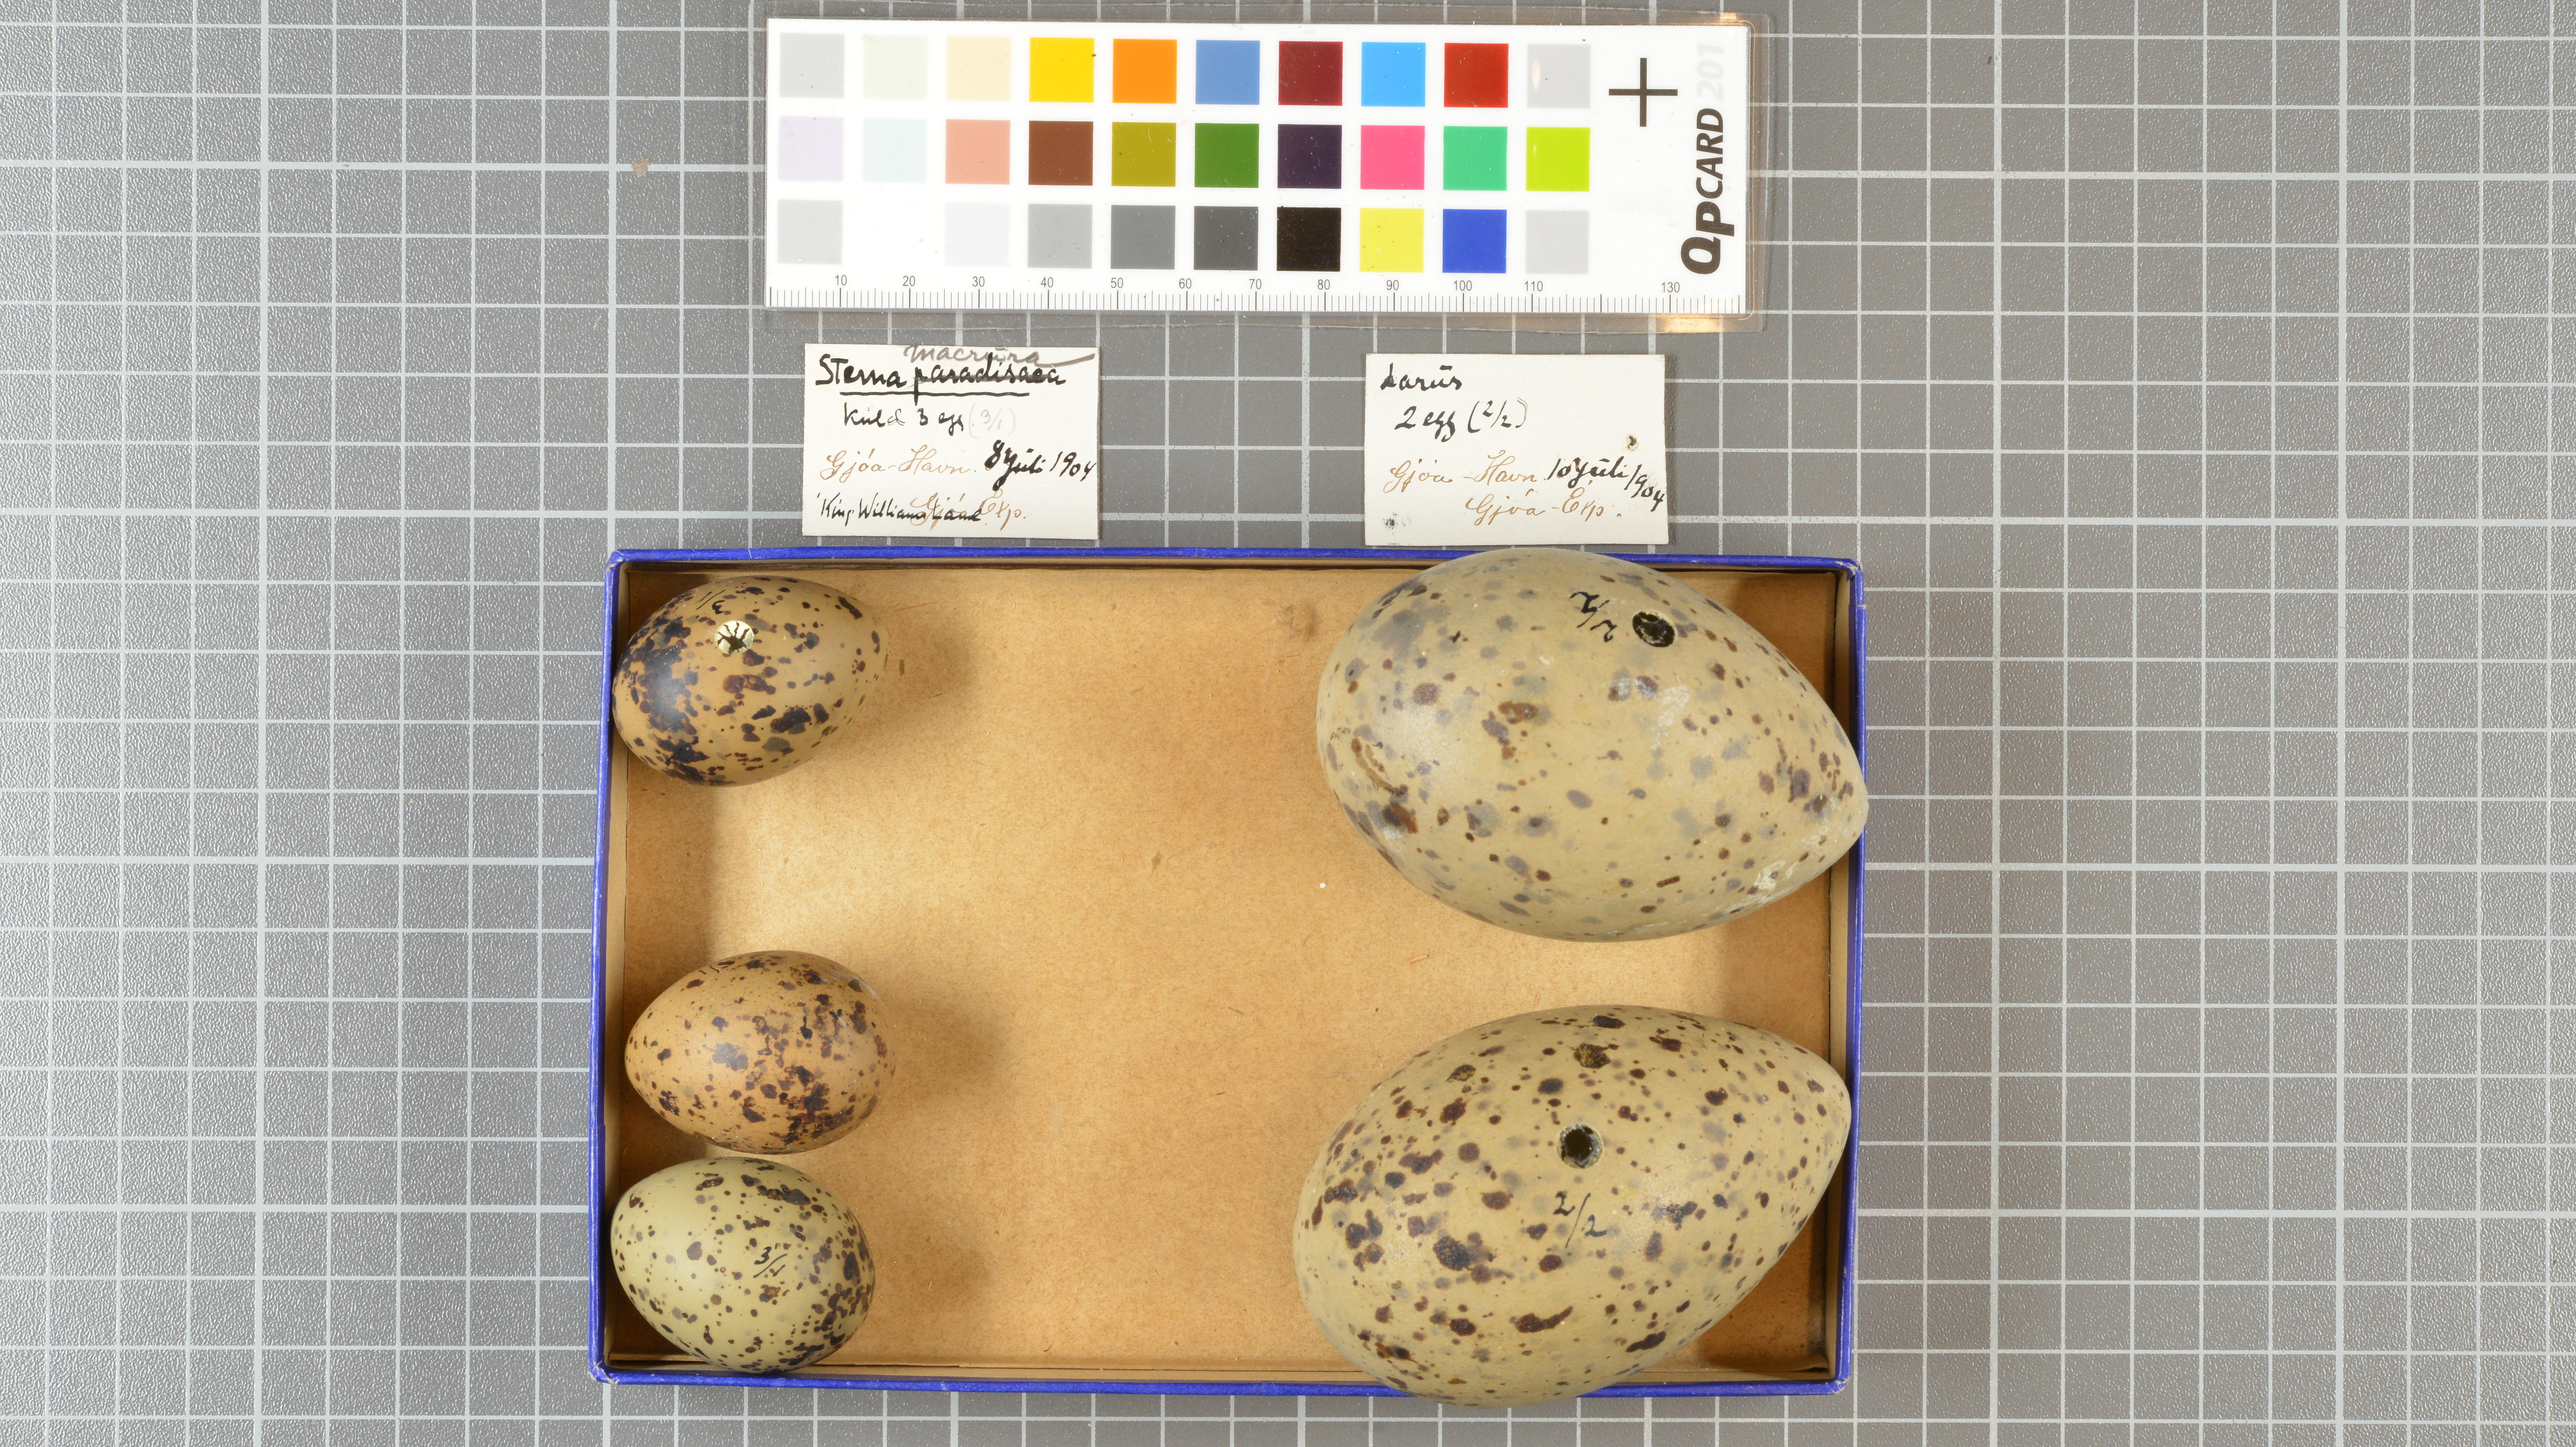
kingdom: Animalia
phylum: Chordata
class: Aves
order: Charadriiformes
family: Laridae
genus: Larus
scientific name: Larus
